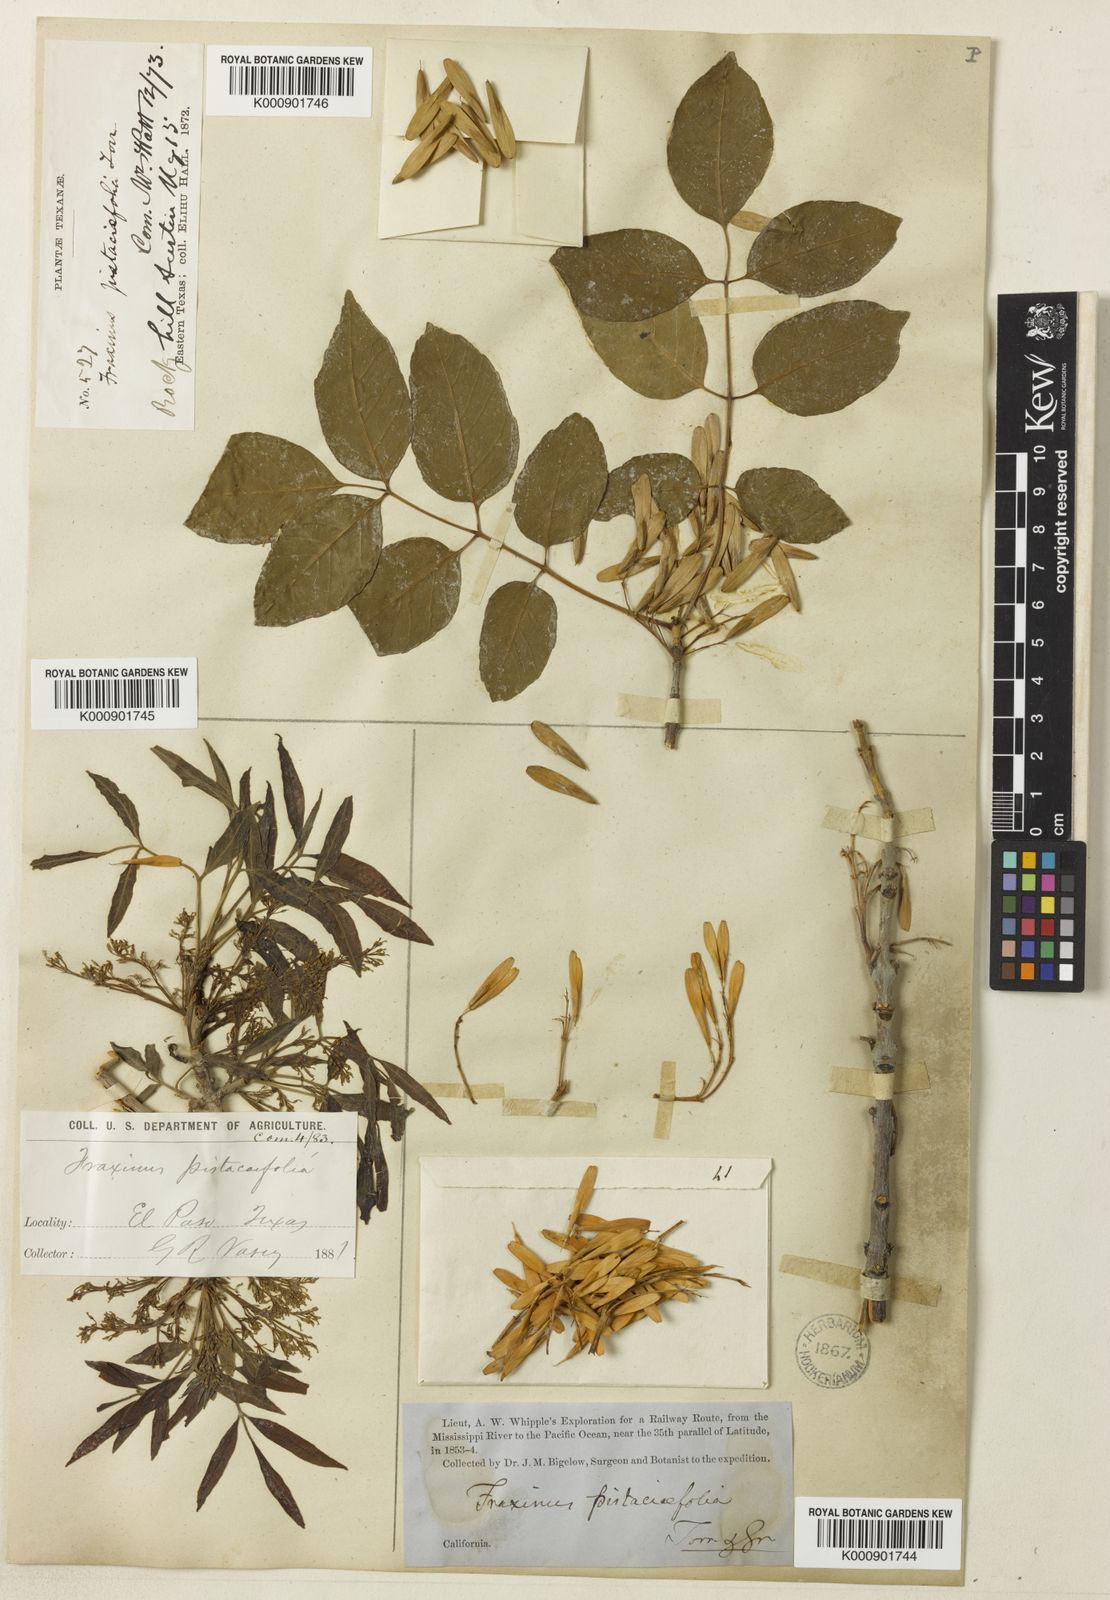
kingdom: Plantae
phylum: Tracheophyta
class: Magnoliopsida
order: Lamiales
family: Oleaceae
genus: Fraxinus
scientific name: Fraxinus velutina
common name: Arizon ash
